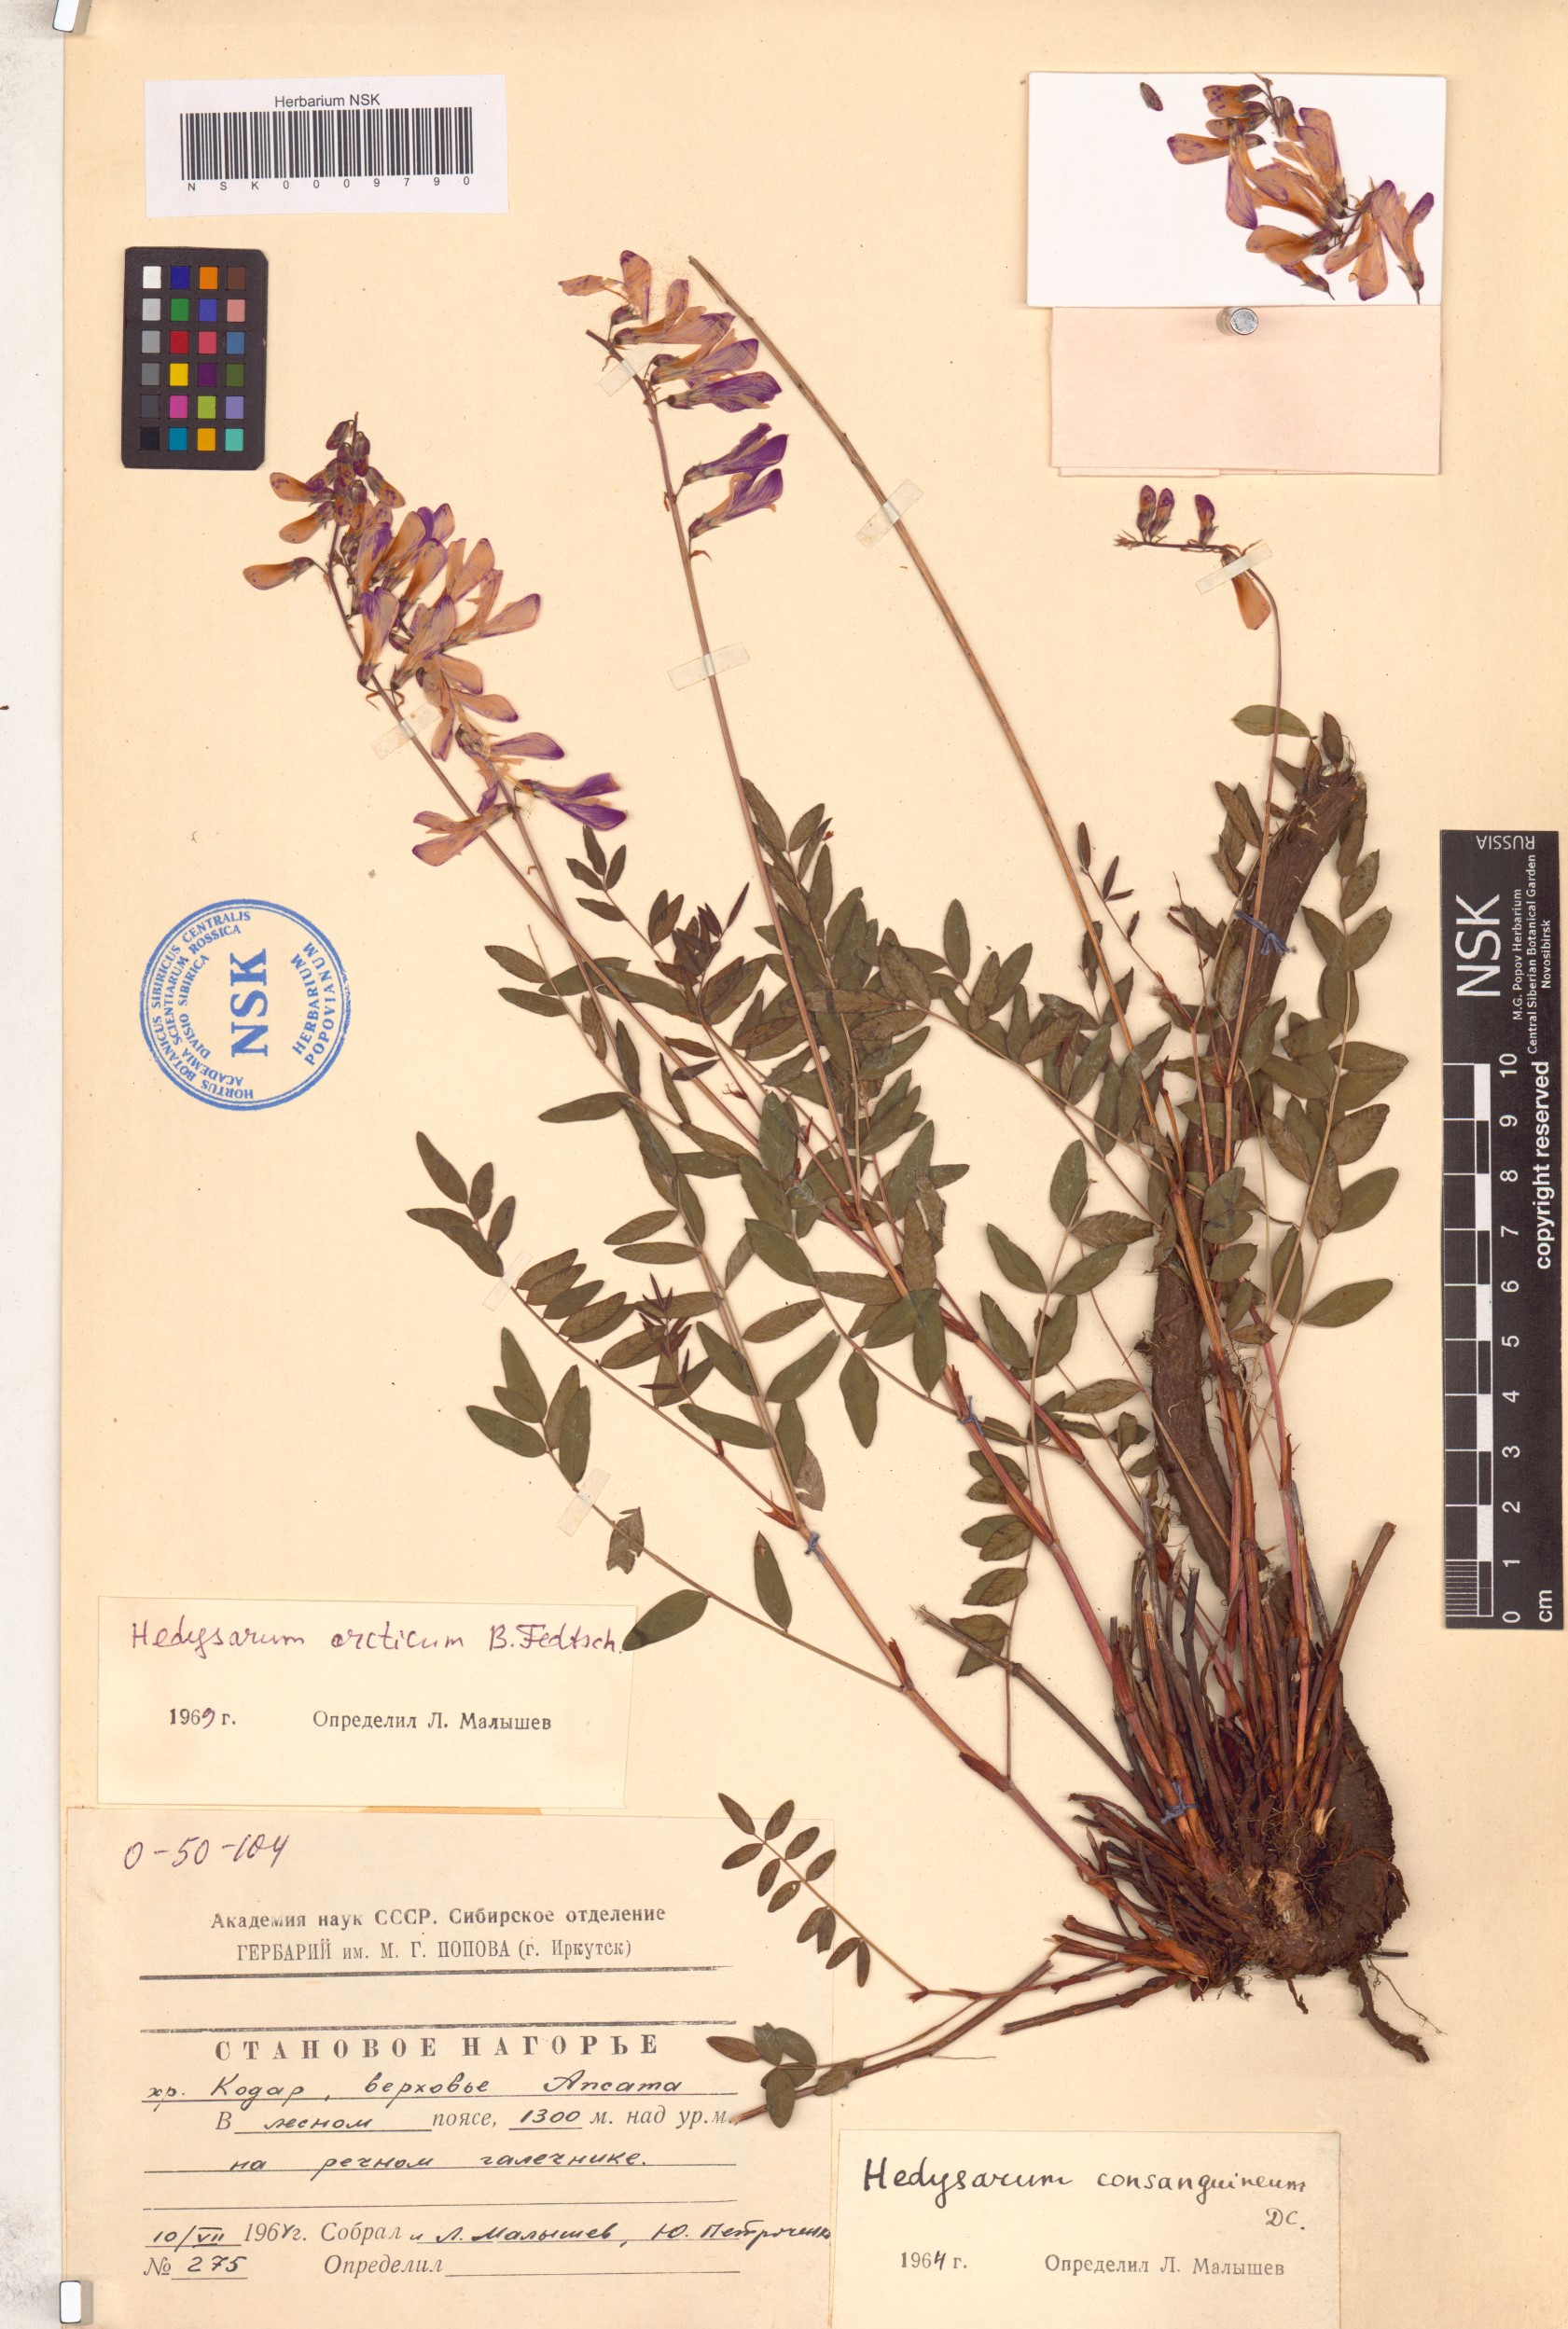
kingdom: Plantae
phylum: Tracheophyta
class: Magnoliopsida
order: Fabales
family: Fabaceae
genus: Hedysarum
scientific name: Hedysarum hedysaroides
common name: Alpine french-honeysuckle
